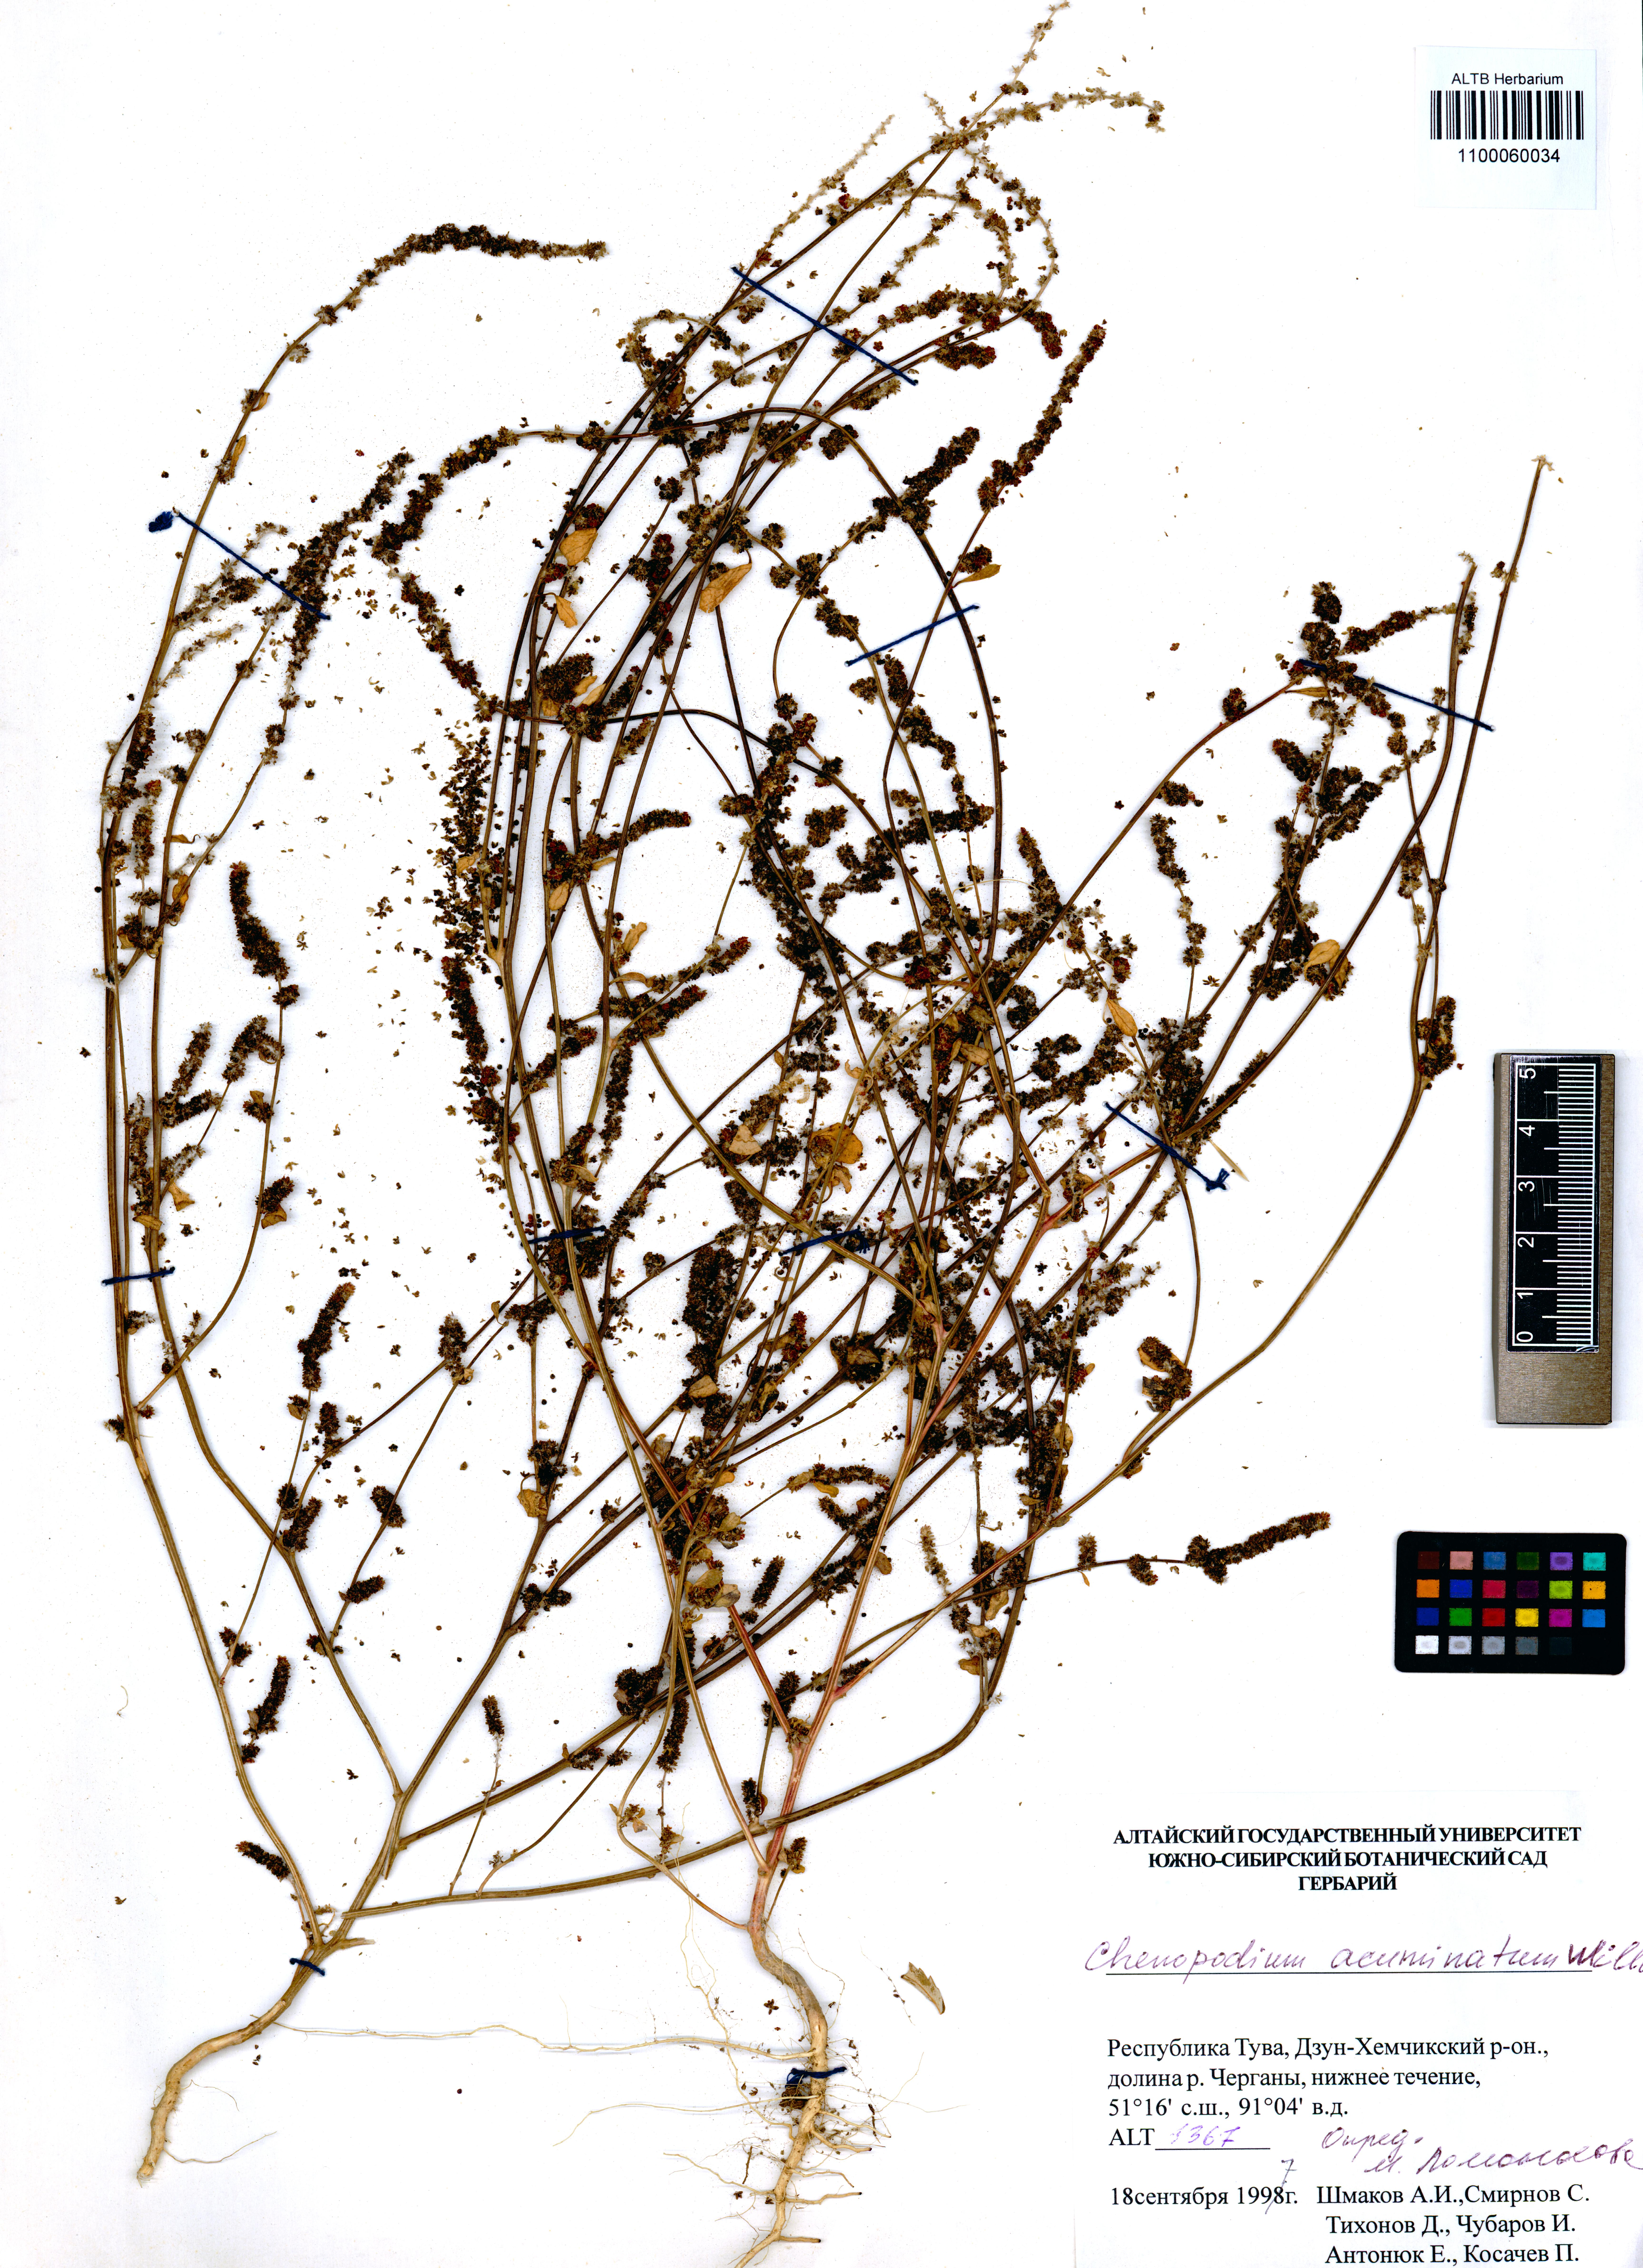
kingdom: Plantae
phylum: Tracheophyta
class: Magnoliopsida
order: Caryophyllales
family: Amaranthaceae
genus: Chenopodium
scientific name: Chenopodium acuminatum
